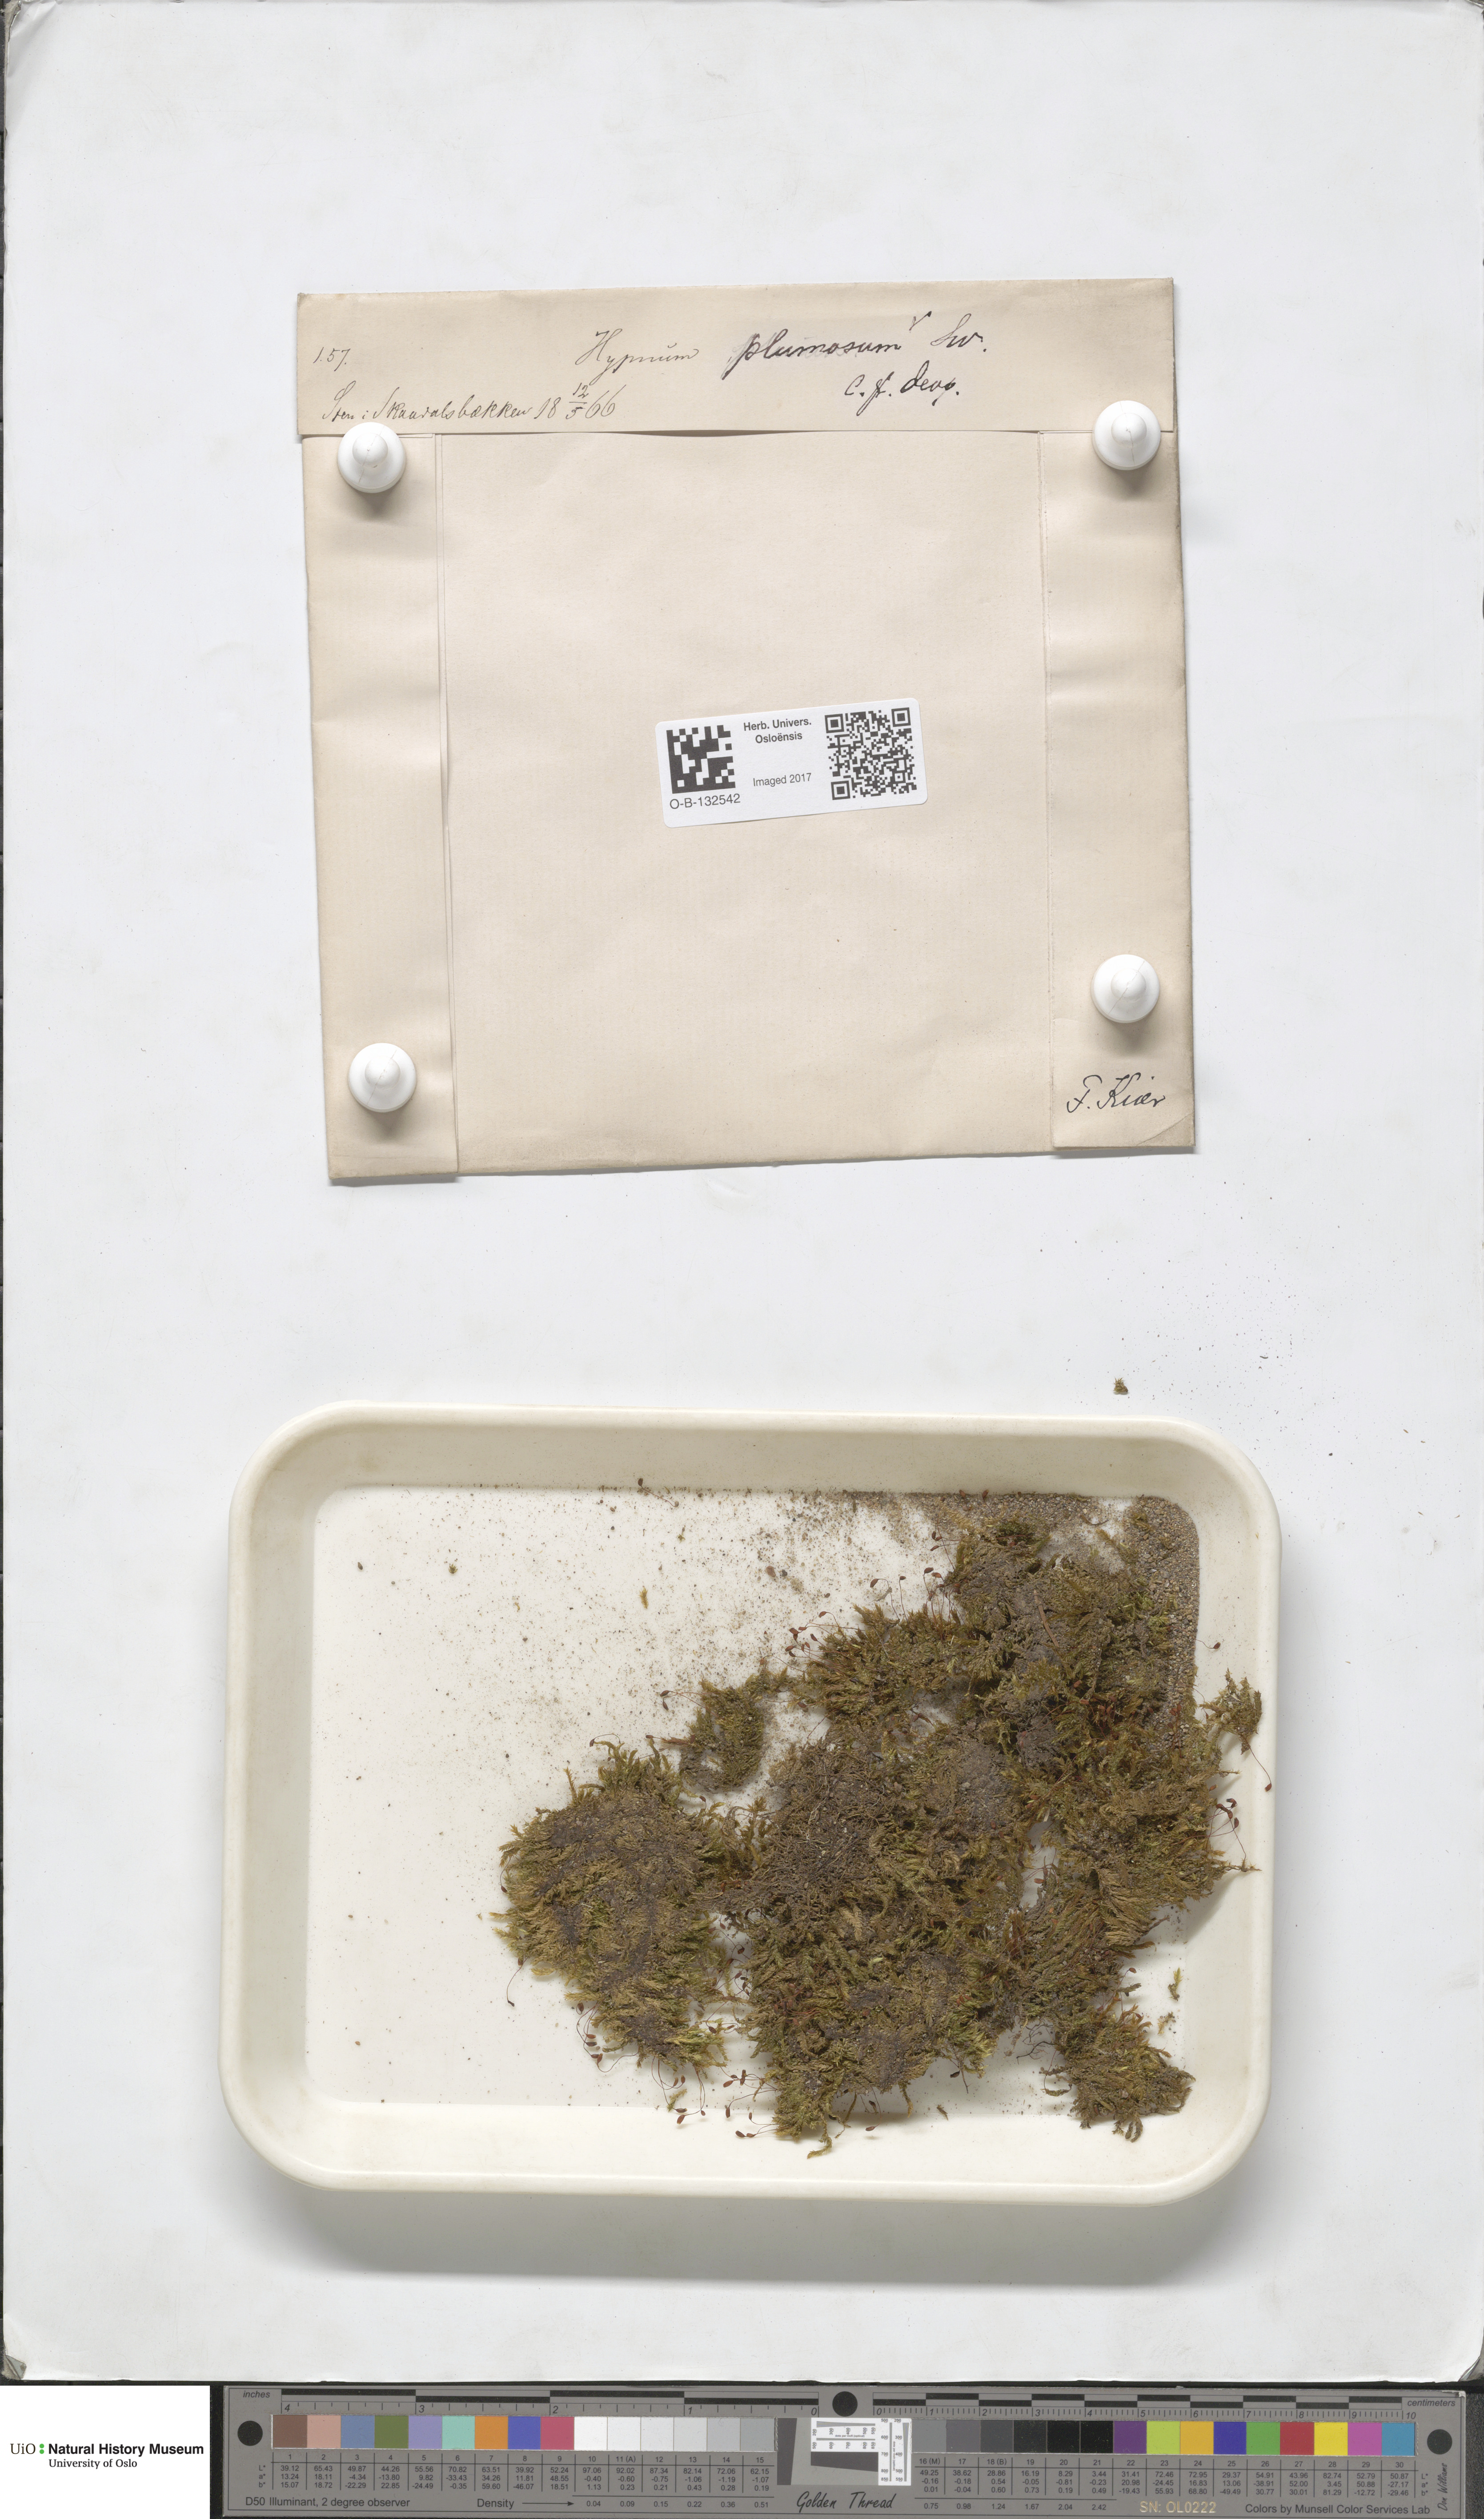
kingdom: Plantae
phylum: Bryophyta
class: Bryopsida
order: Hypnales
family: Brachytheciaceae
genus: Sciuro-hypnum
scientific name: Sciuro-hypnum plumosum
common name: Rusty feather-moss
